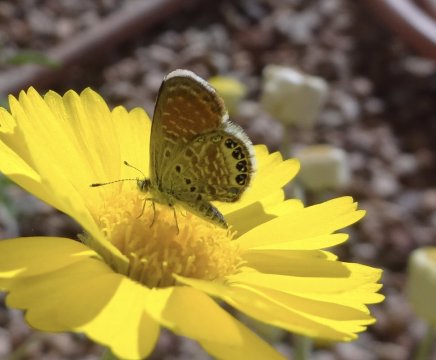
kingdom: Animalia
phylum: Arthropoda
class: Insecta
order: Lepidoptera
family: Lycaenidae
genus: Brephidium
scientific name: Brephidium exilis
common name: Western Pygmy-Blue
